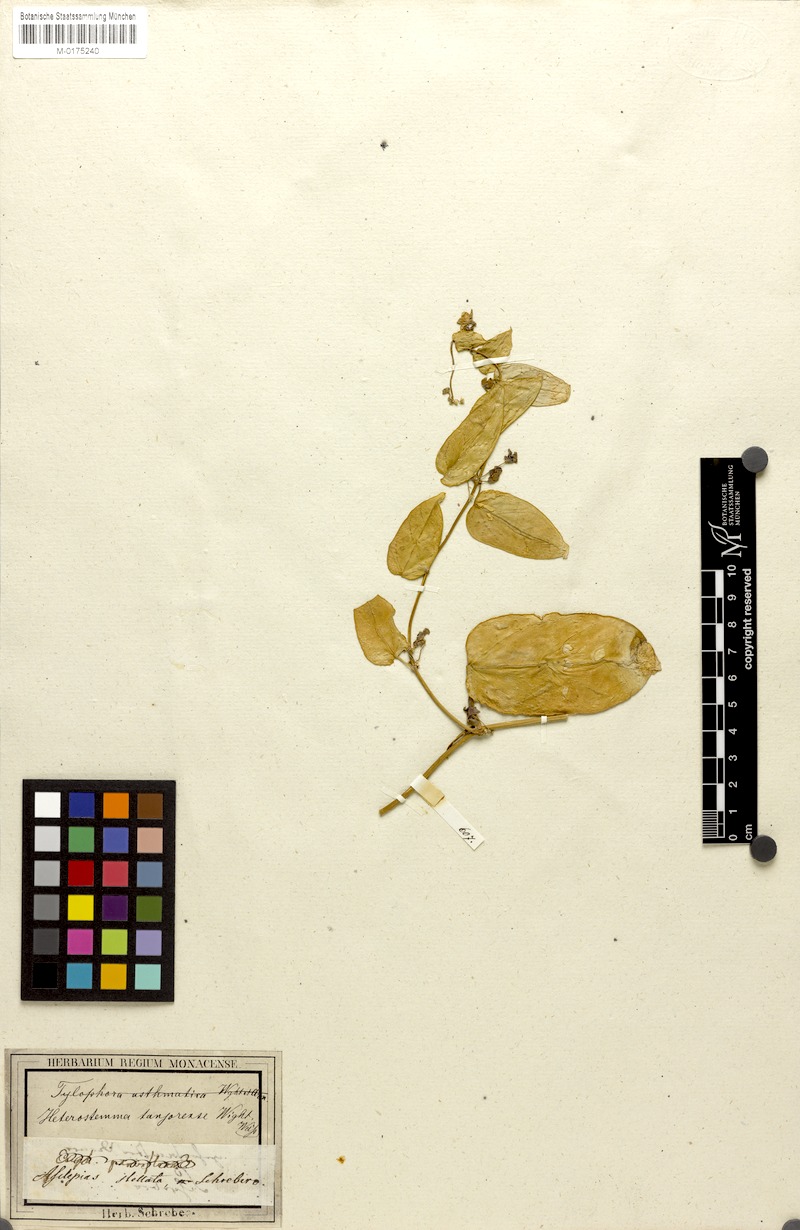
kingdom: Plantae
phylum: Tracheophyta
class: Magnoliopsida
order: Gentianales
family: Apocynaceae
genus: Hoya
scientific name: Hoya multiflora
